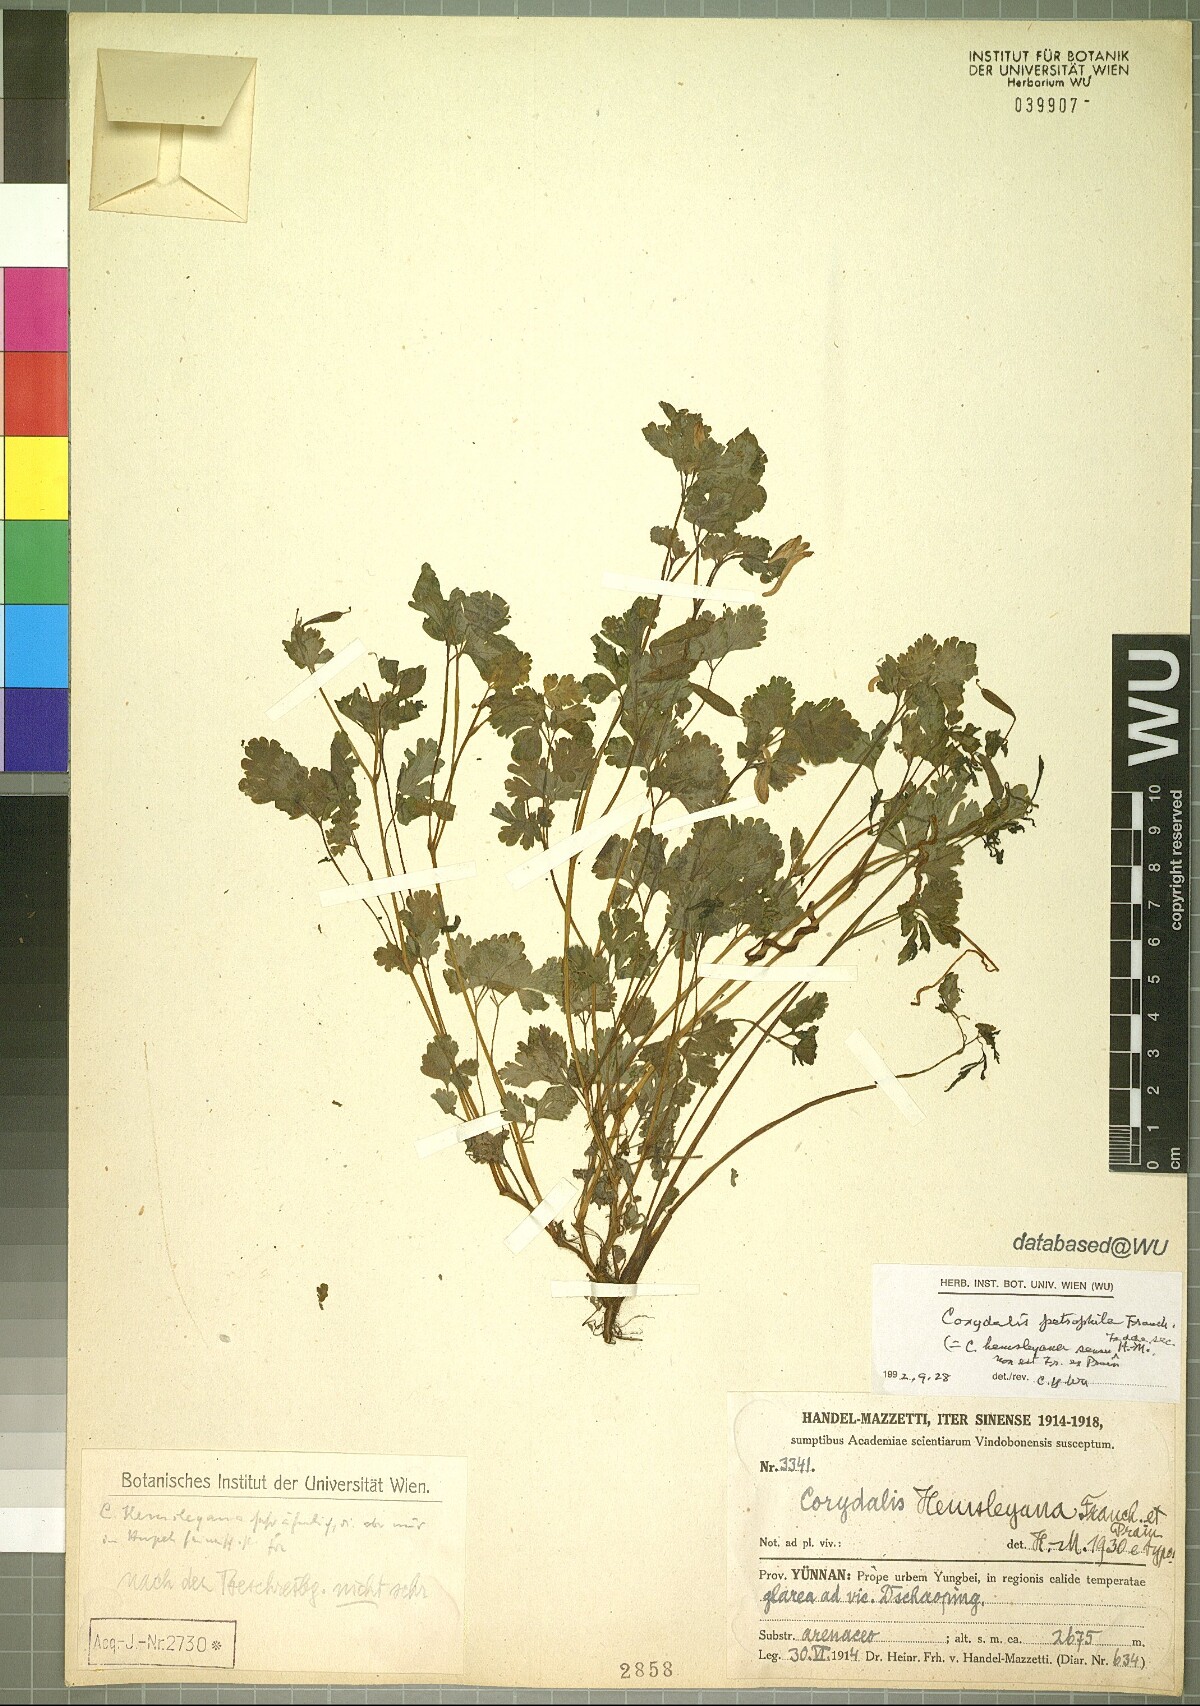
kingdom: Plantae
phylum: Tracheophyta
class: Magnoliopsida
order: Ranunculales
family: Papaveraceae
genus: Corydalis
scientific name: Corydalis petrophila
